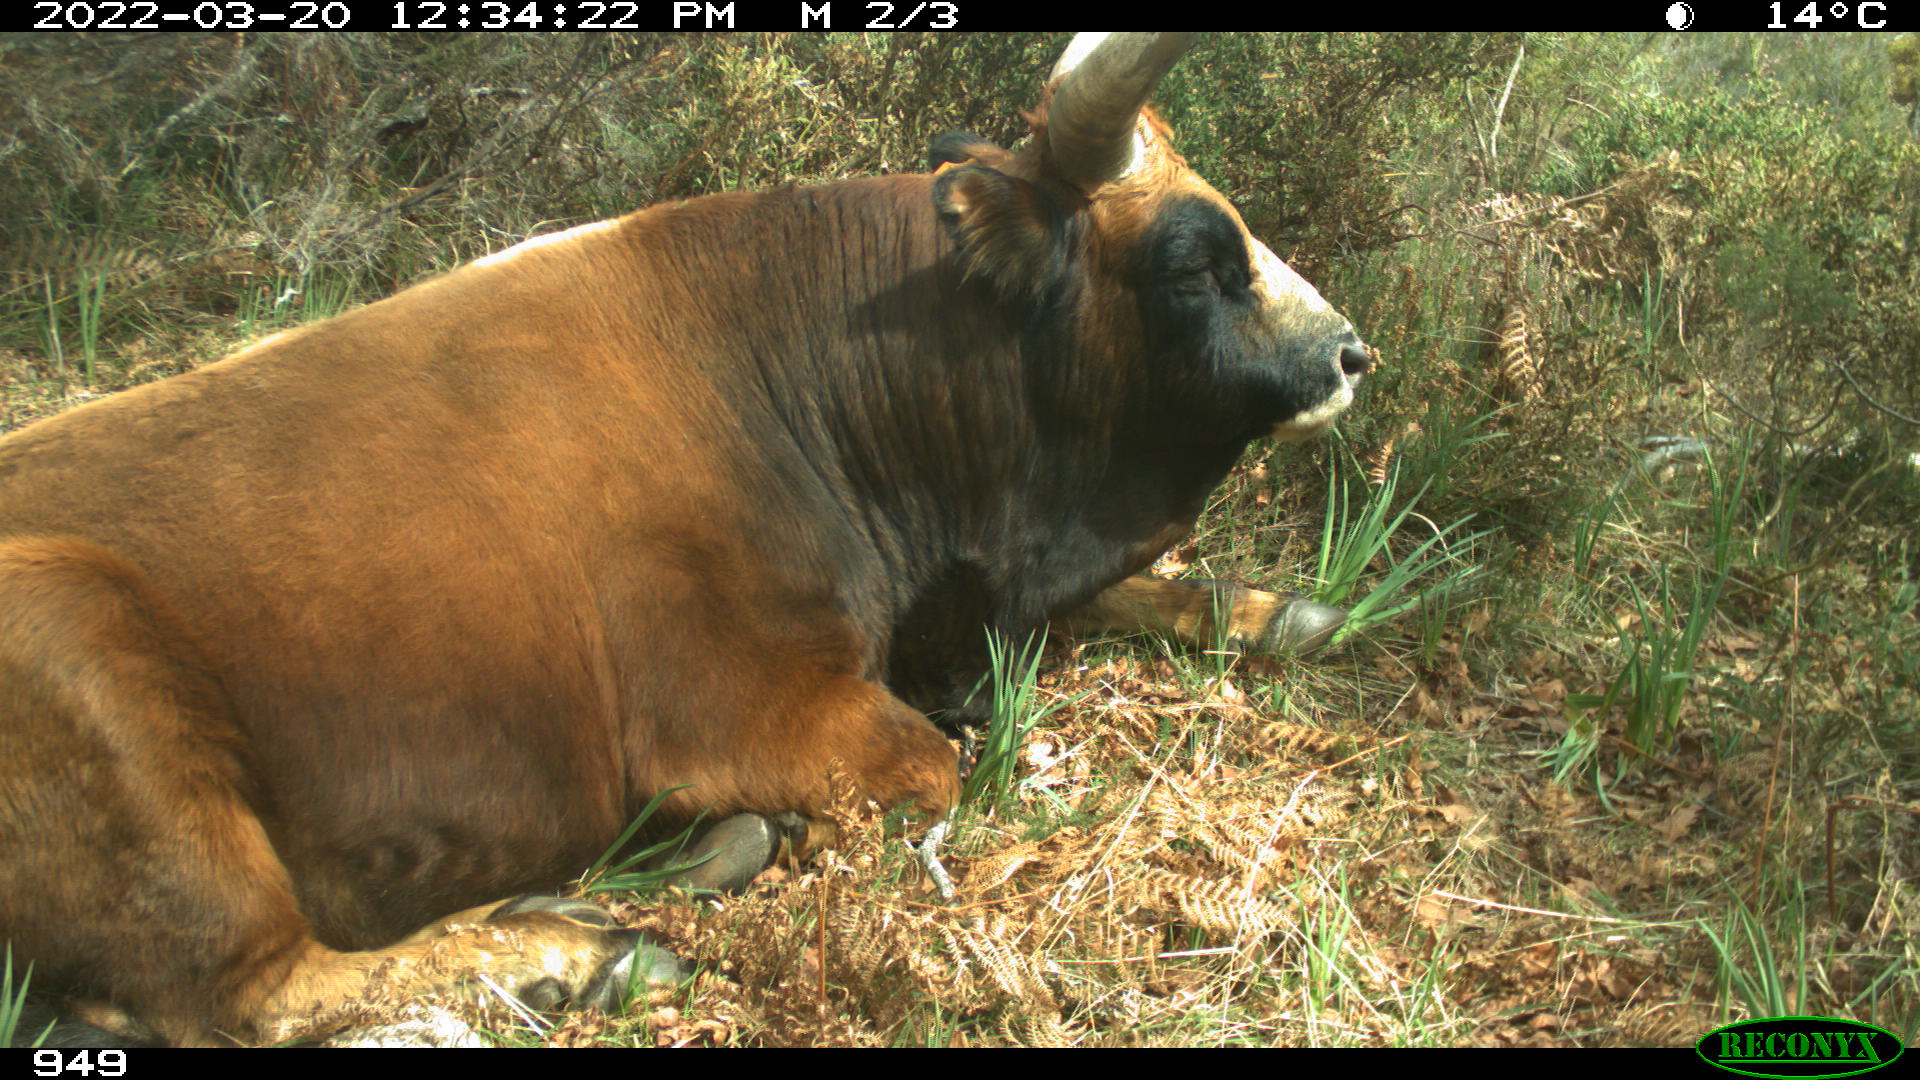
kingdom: Animalia
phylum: Chordata
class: Mammalia
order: Artiodactyla
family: Bovidae
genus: Bos
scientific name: Bos taurus
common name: Domesticated cattle
